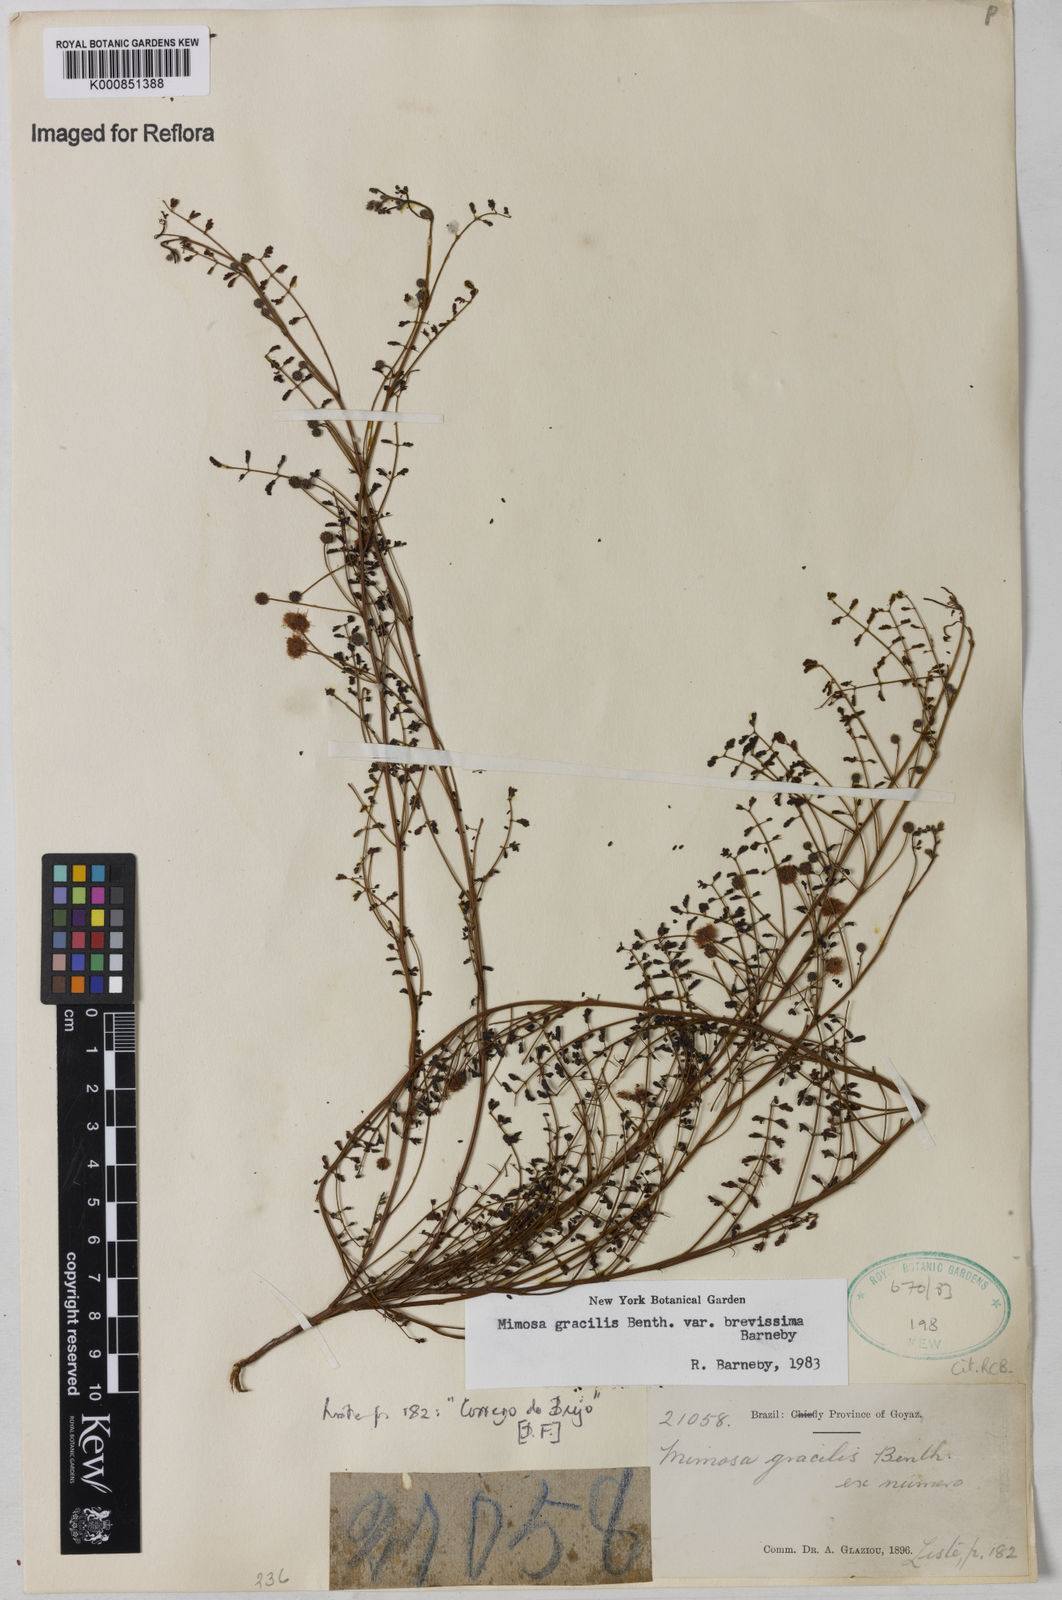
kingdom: Plantae
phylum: Tracheophyta
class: Magnoliopsida
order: Fabales
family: Fabaceae
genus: Mimosa
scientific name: Mimosa gracilis
